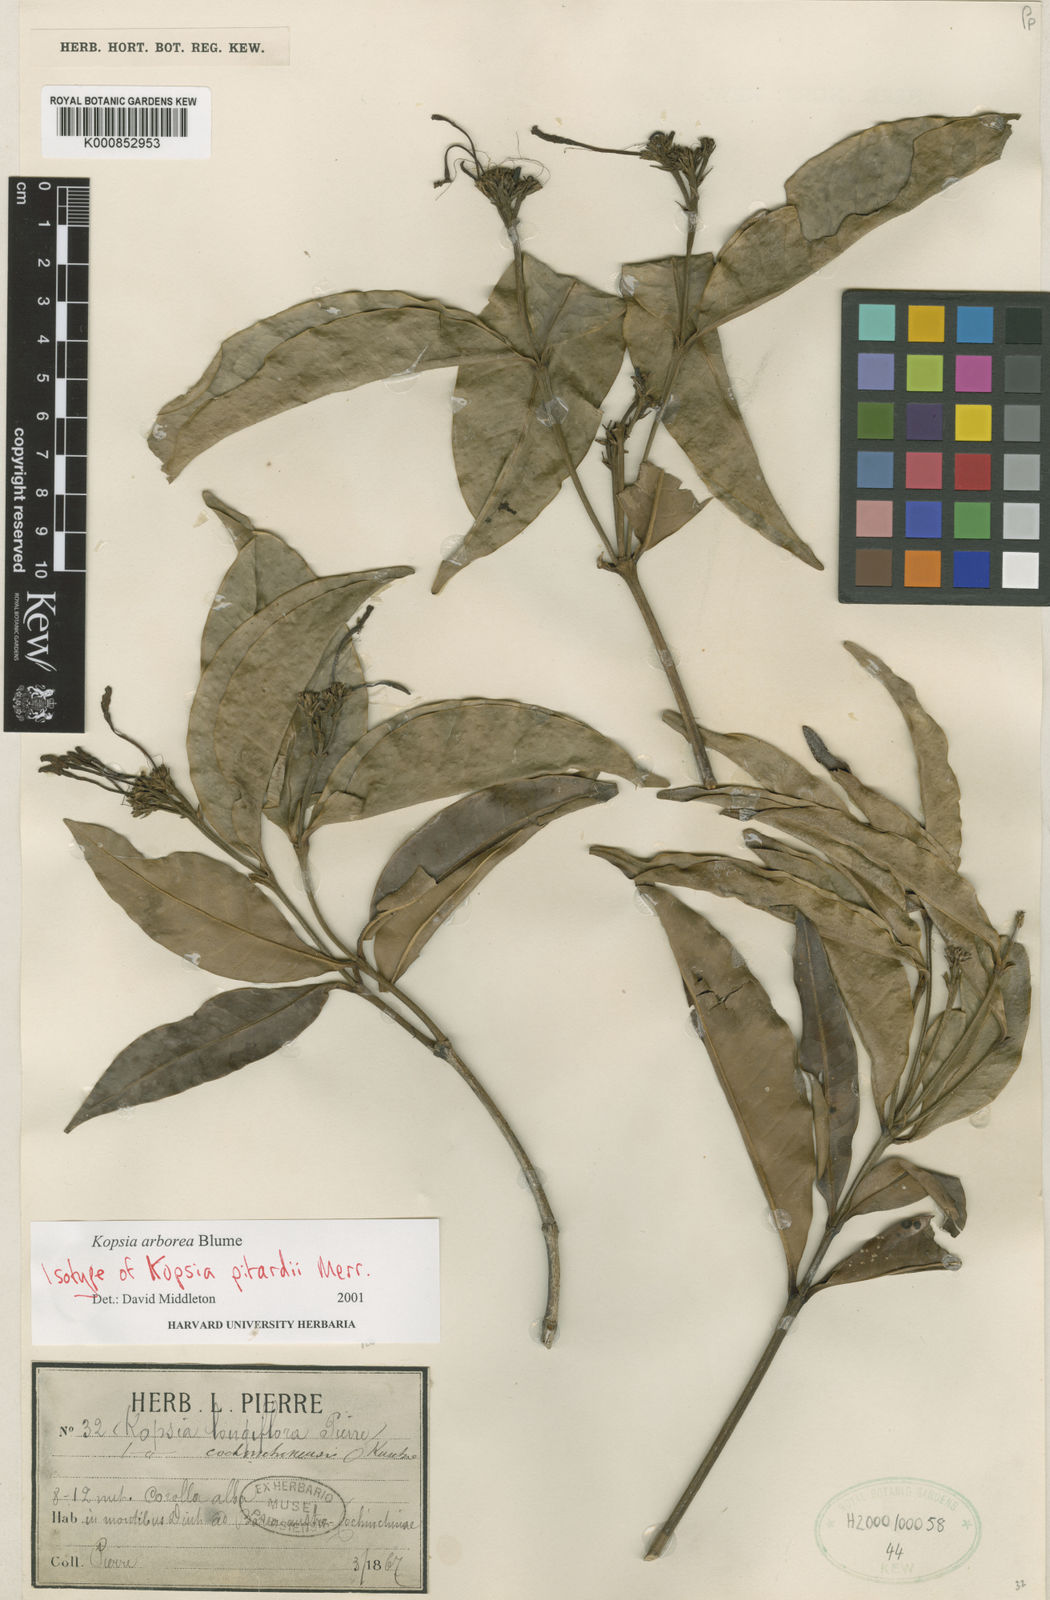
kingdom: Plantae
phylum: Tracheophyta
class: Magnoliopsida
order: Gentianales
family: Apocynaceae
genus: Kopsia
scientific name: Kopsia arborea
